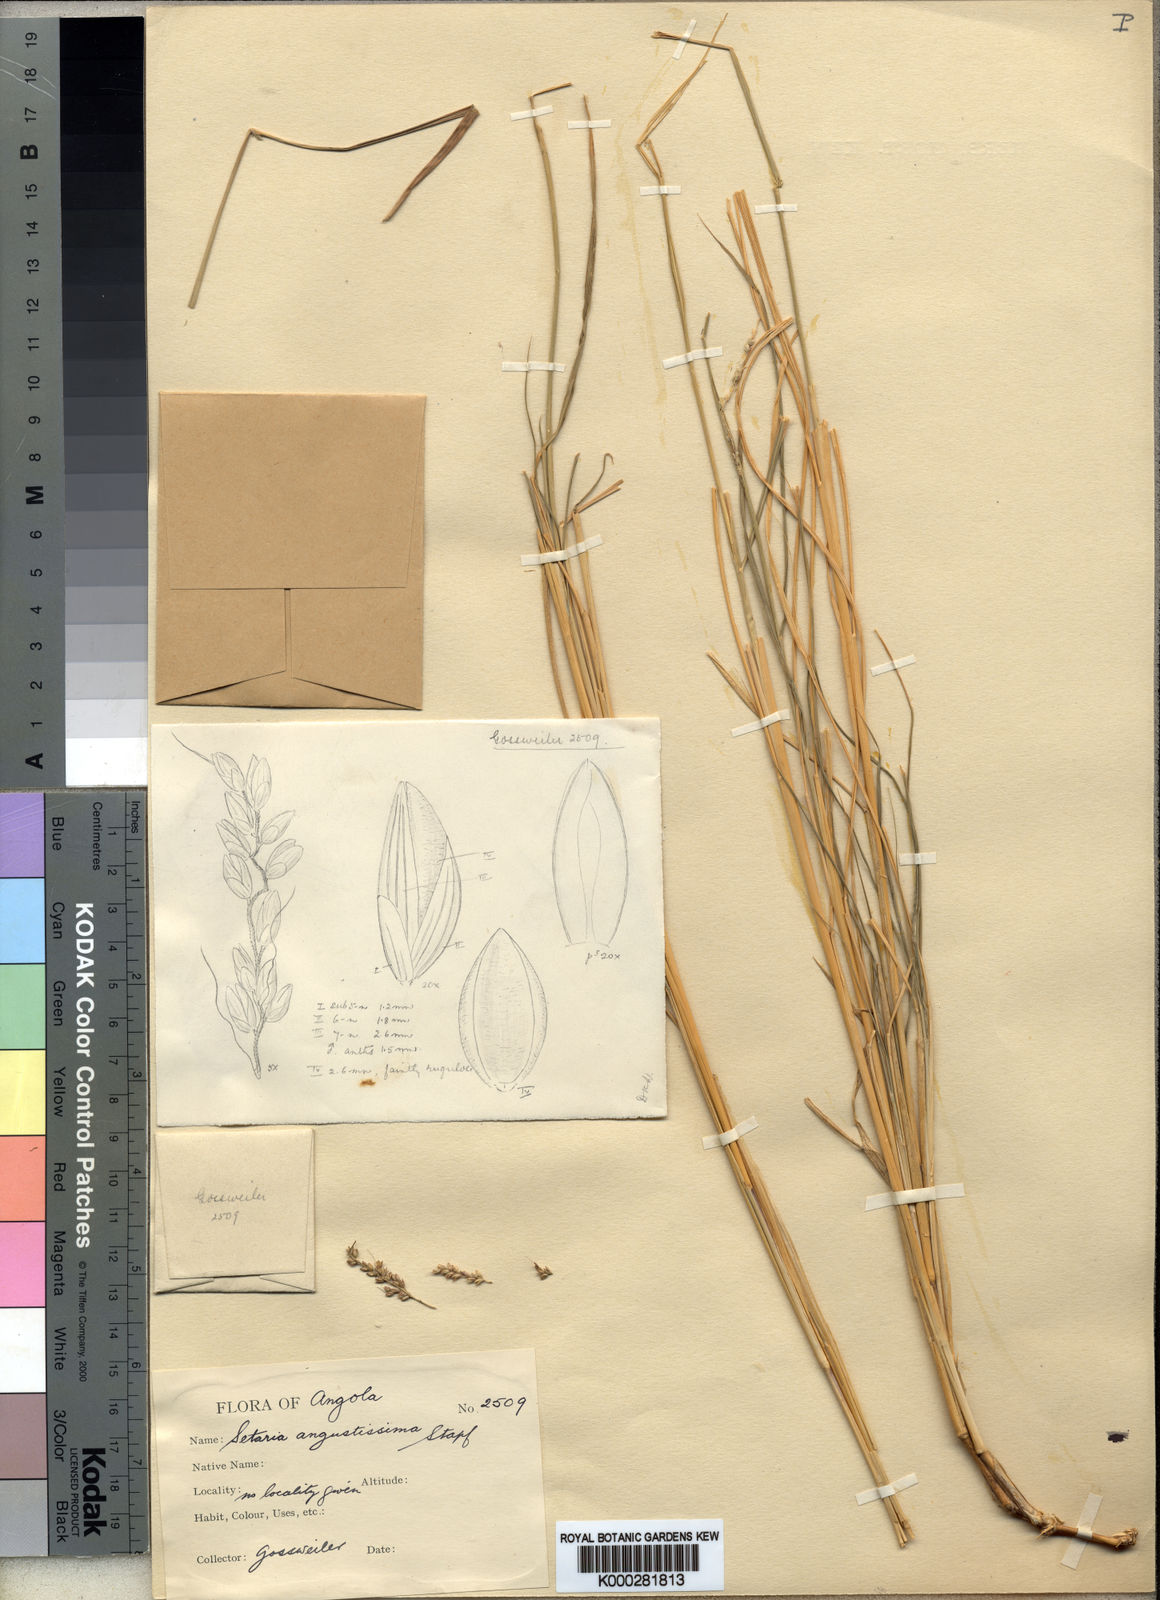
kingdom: Plantae
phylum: Tracheophyta
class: Liliopsida
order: Poales
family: Poaceae
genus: Setaria
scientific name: Setaria lindenbergiana
